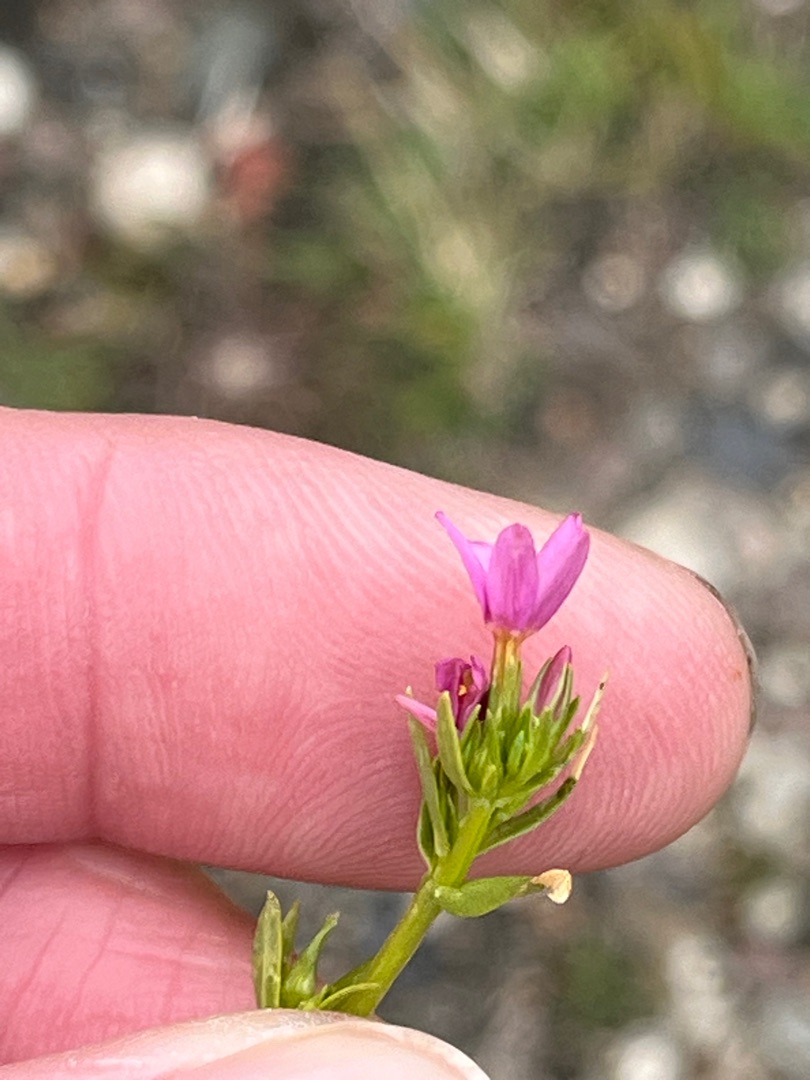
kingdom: Plantae
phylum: Tracheophyta
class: Magnoliopsida
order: Gentianales
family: Gentianaceae
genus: Centaurium
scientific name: Centaurium erythraea
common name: Mark-tusindgylden
